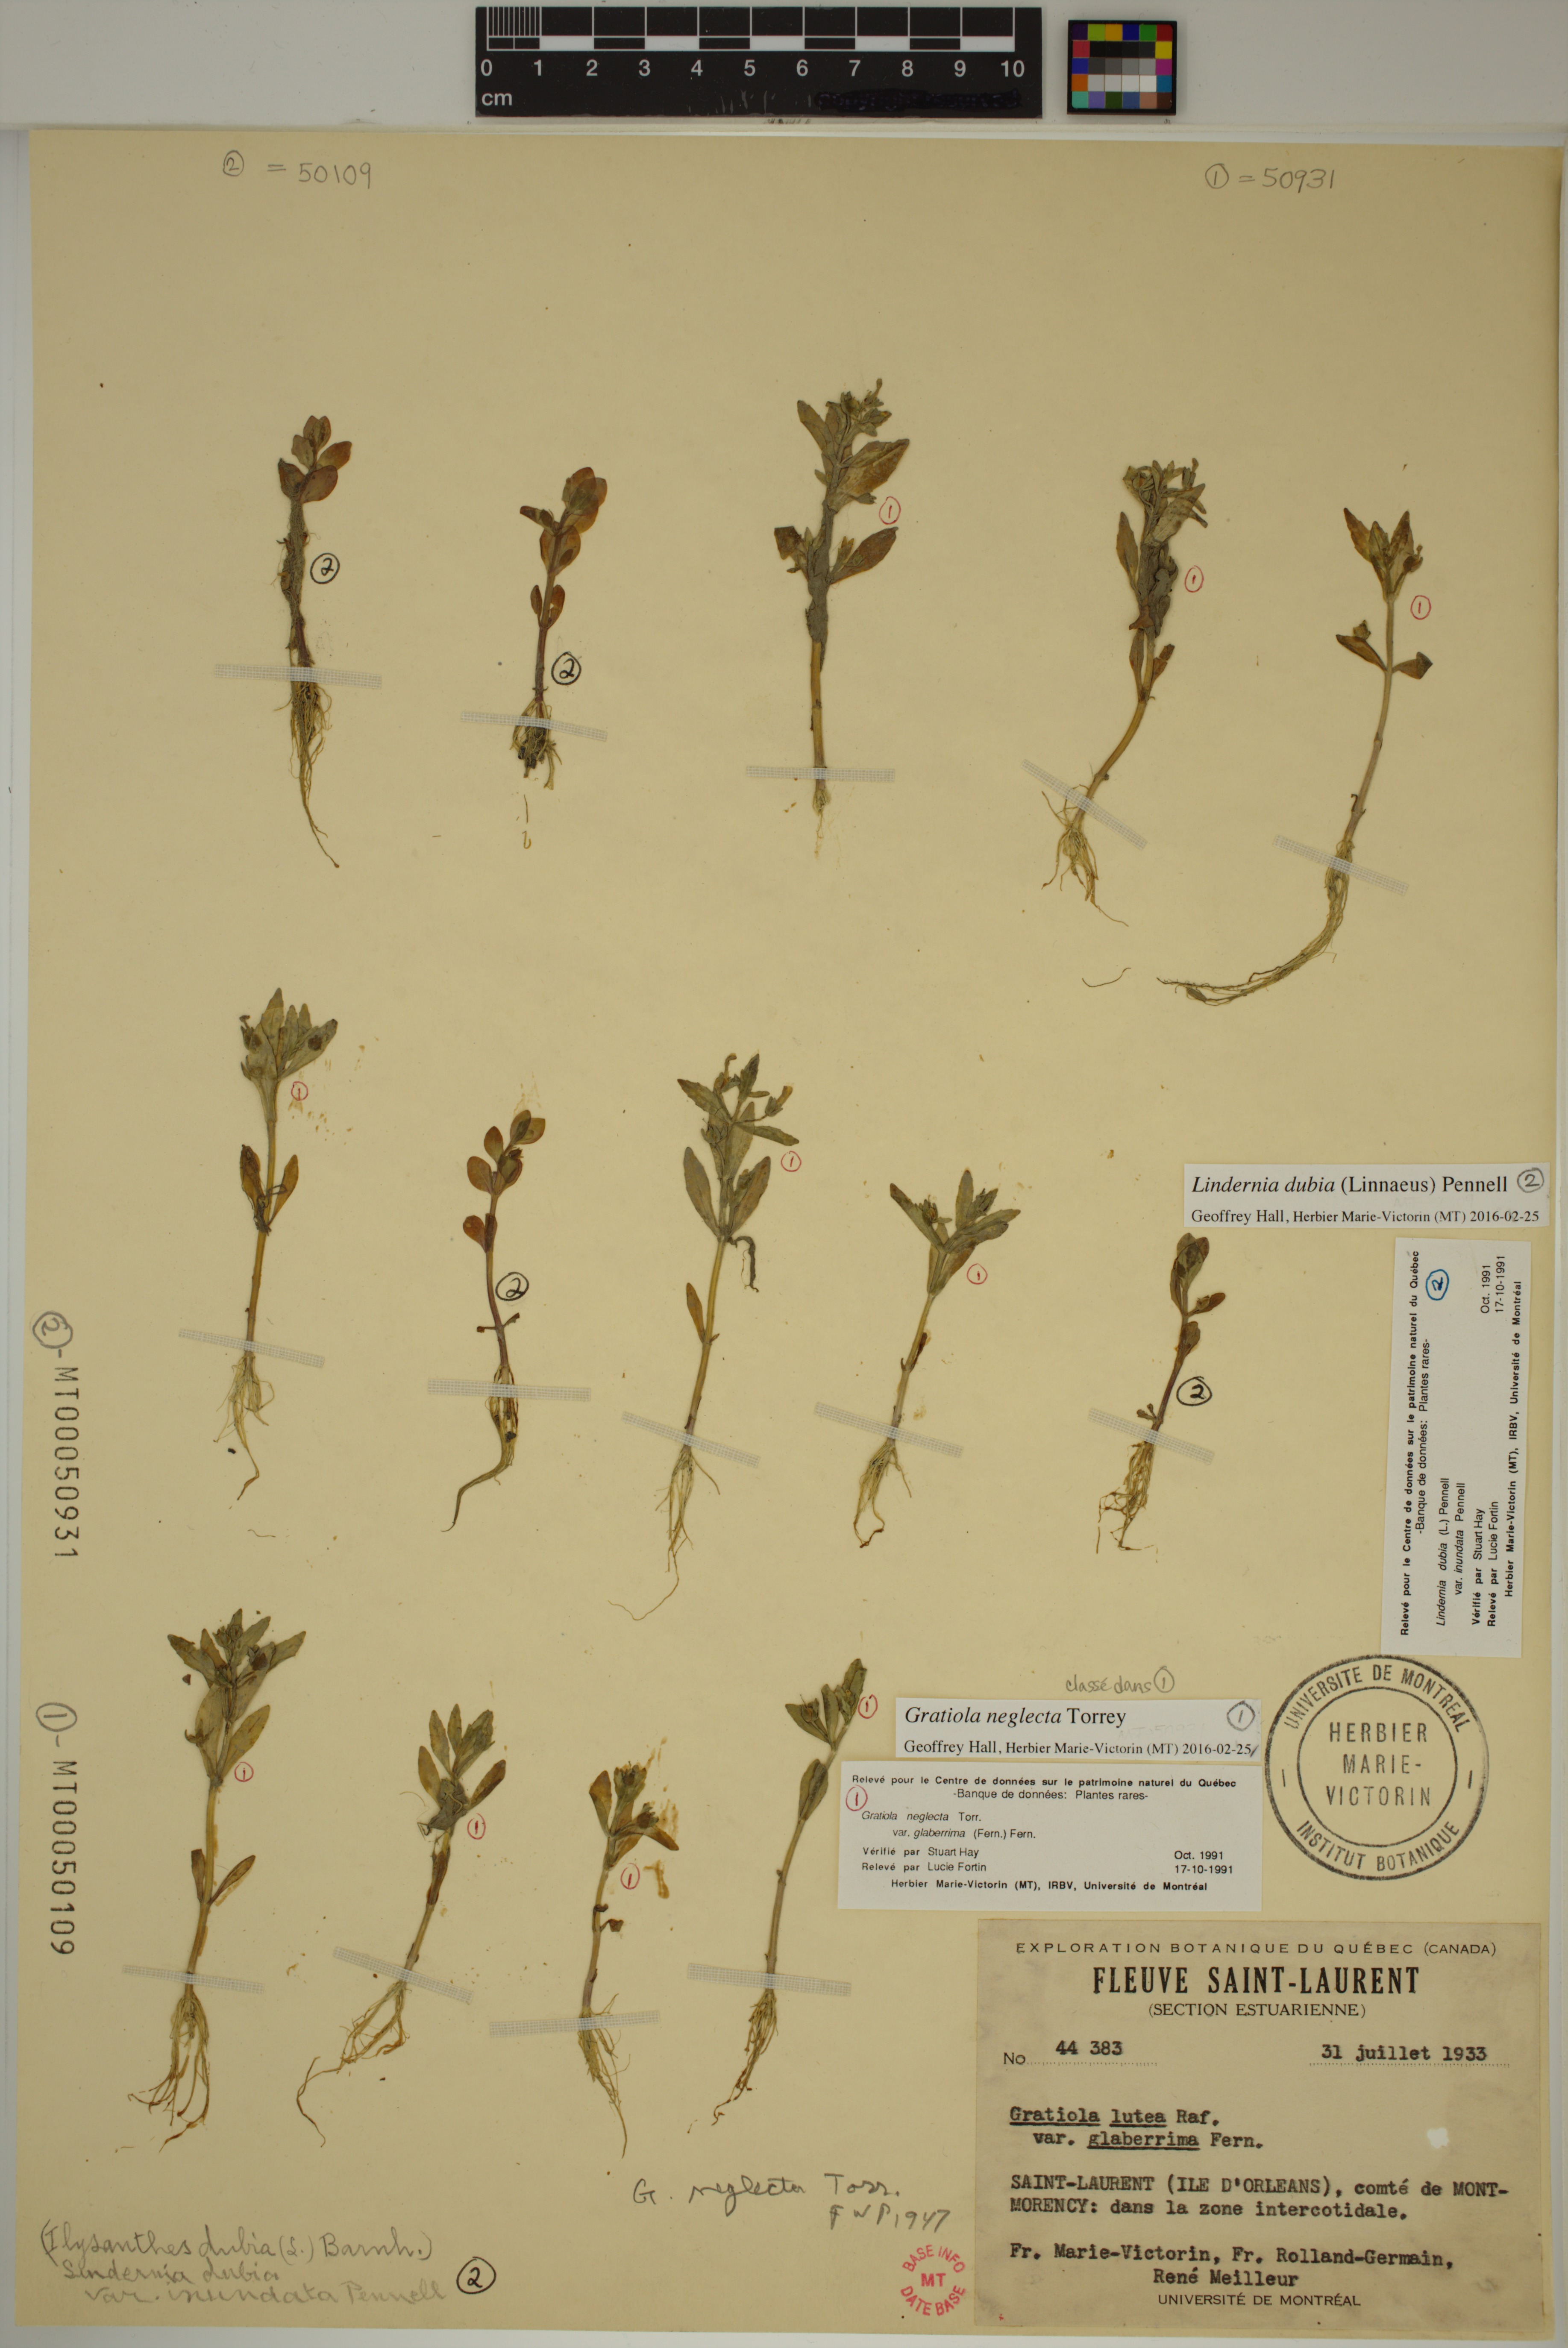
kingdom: Plantae
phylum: Tracheophyta
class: Magnoliopsida
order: Lamiales
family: Plantaginaceae
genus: Gratiola
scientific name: Gratiola neglecta
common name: American hedge-hyssop
